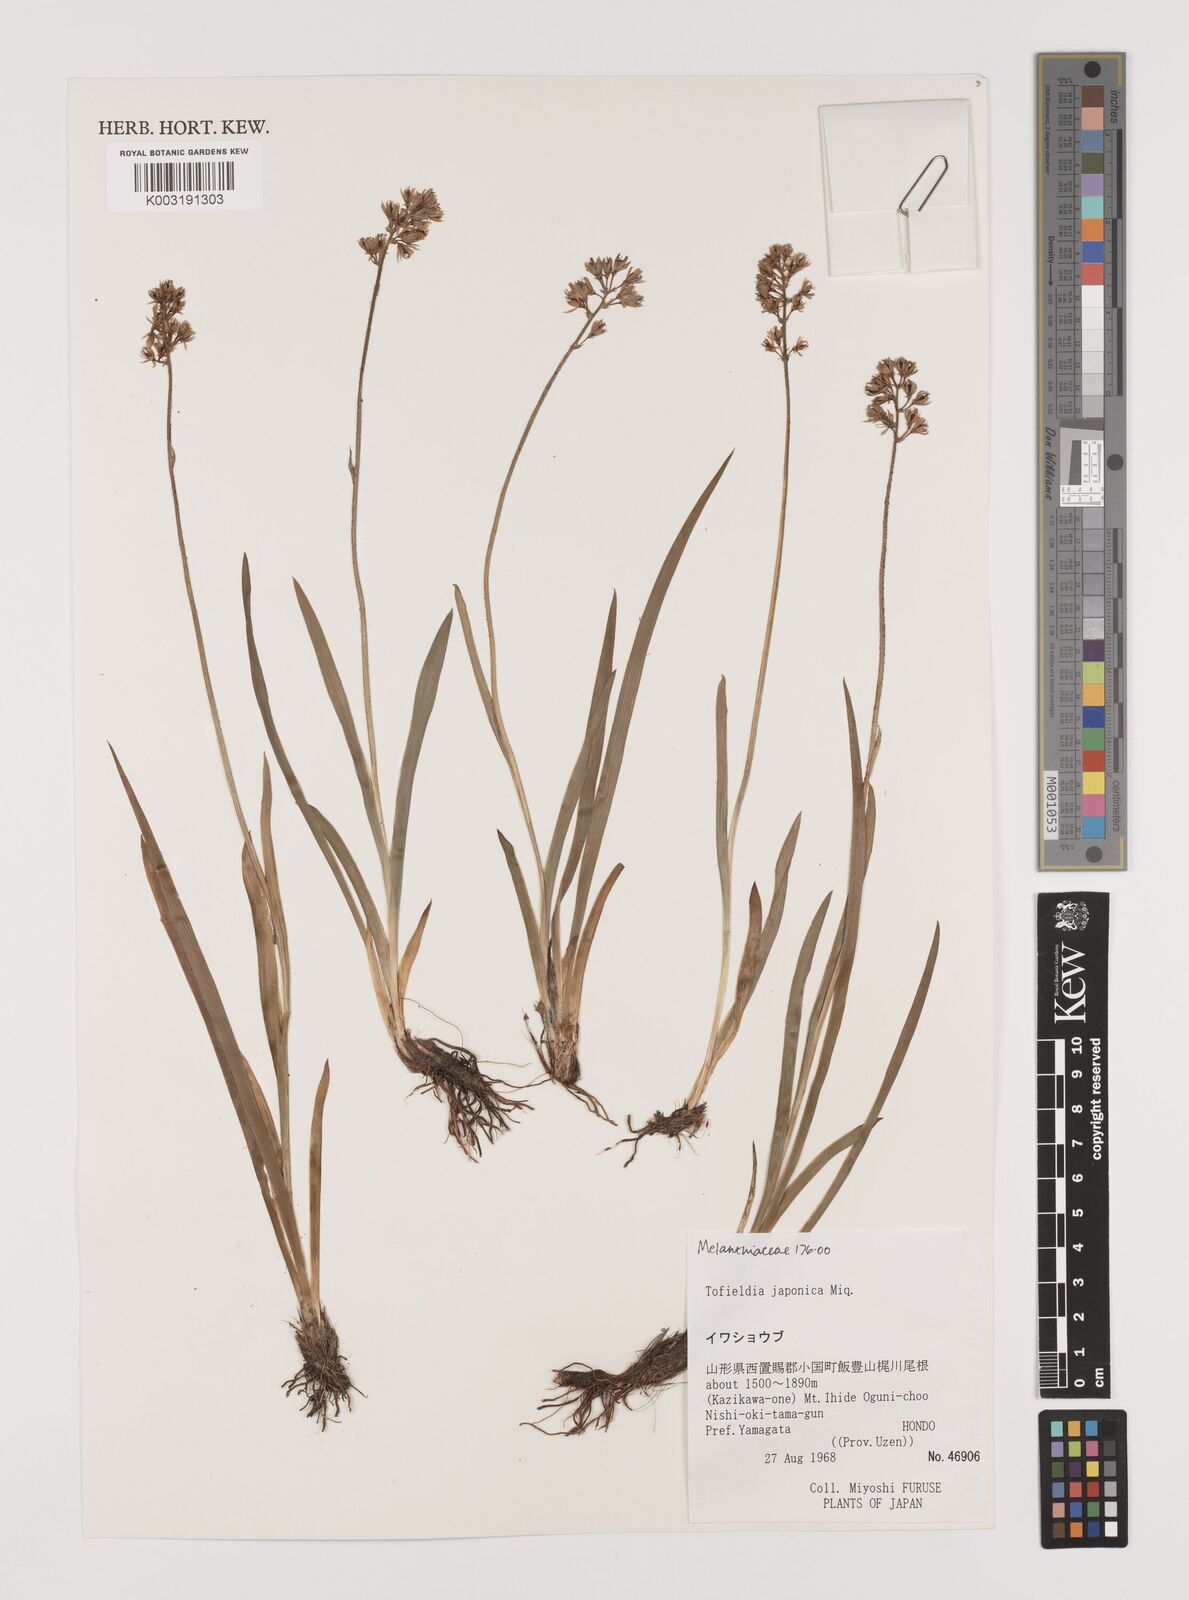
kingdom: Plantae
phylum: Tracheophyta
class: Liliopsida
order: Alismatales
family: Tofieldiaceae
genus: Triantha
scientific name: Triantha japonica
